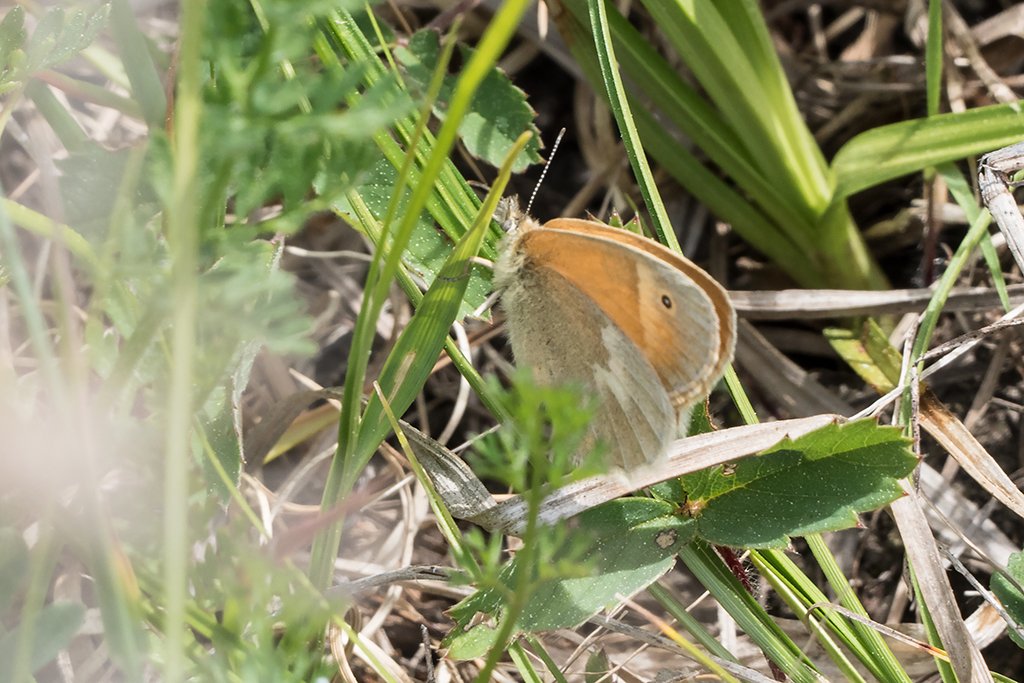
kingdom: Animalia
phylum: Arthropoda
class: Insecta
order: Lepidoptera
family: Nymphalidae
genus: Coenonympha
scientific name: Coenonympha tullia
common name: Large Heath
